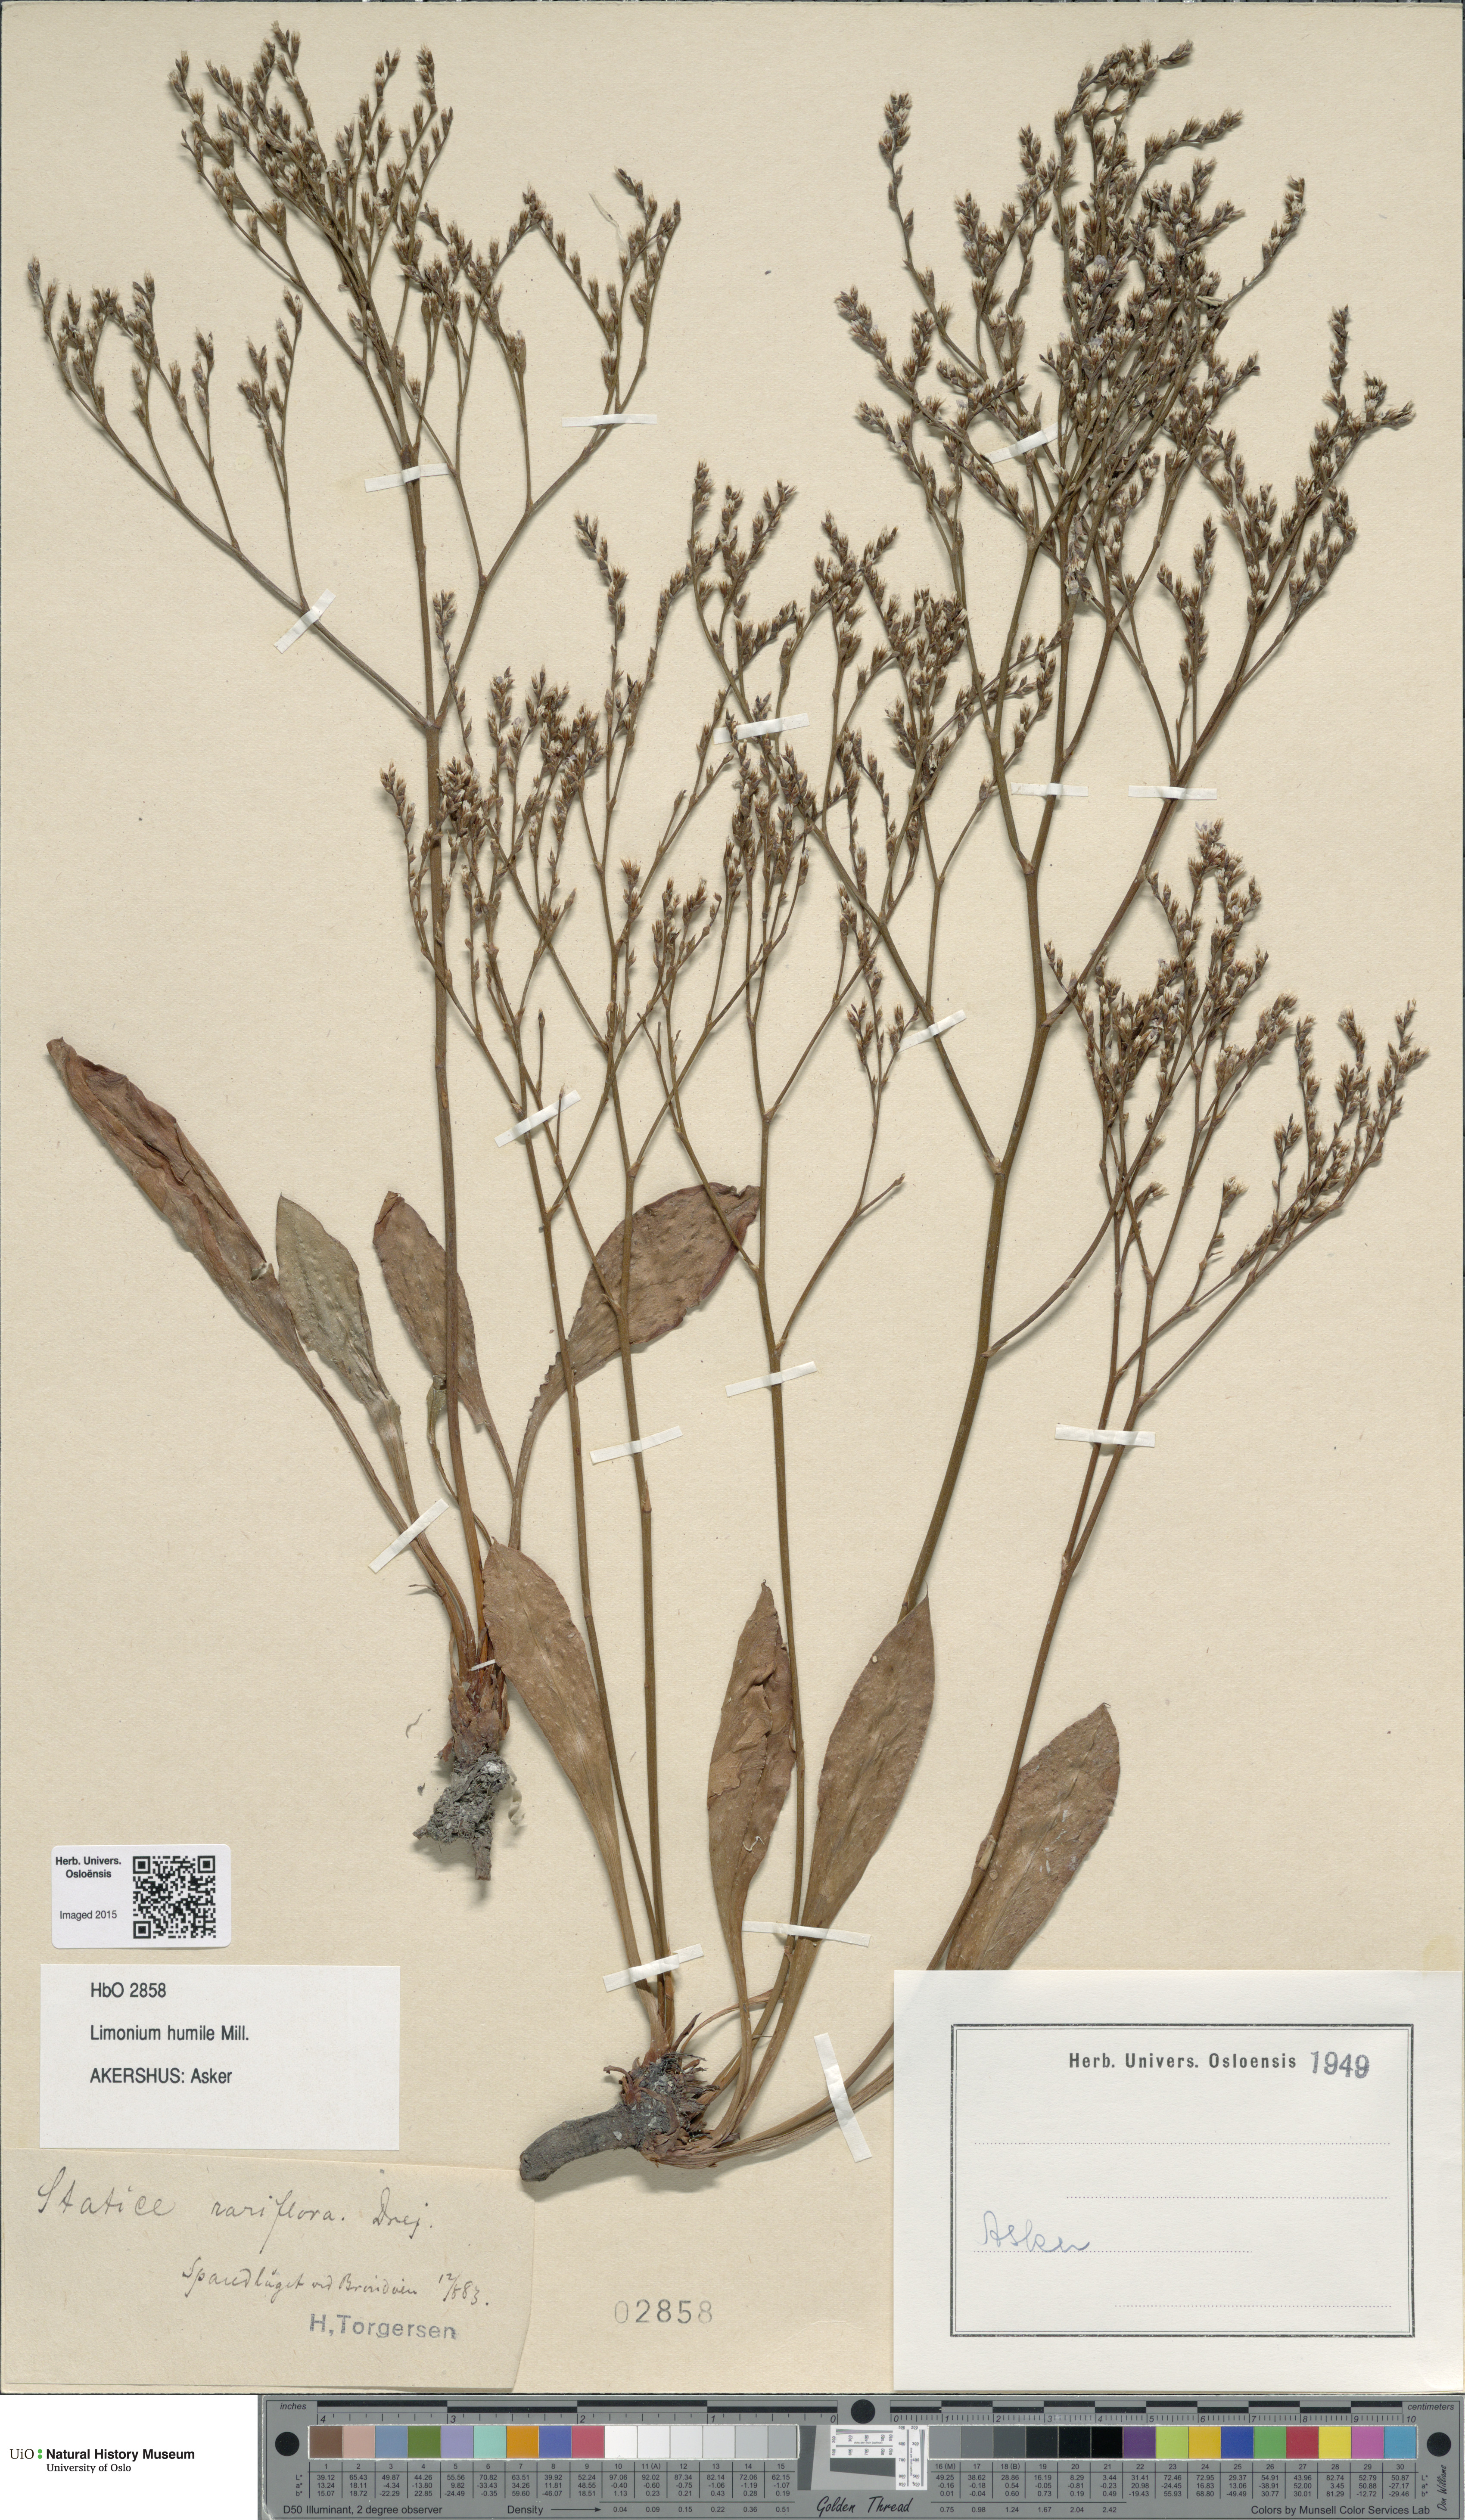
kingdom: Plantae
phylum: Tracheophyta
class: Magnoliopsida
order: Caryophyllales
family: Plumbaginaceae
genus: Limonium
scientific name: Limonium humile
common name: Lax-flowered sea-lavender
